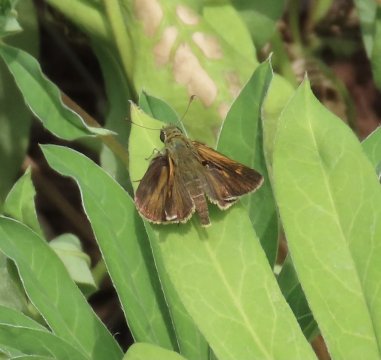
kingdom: Animalia
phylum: Arthropoda
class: Insecta
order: Lepidoptera
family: Hesperiidae
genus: Polites
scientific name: Polites egeremet
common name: Northern Broken-Dash
